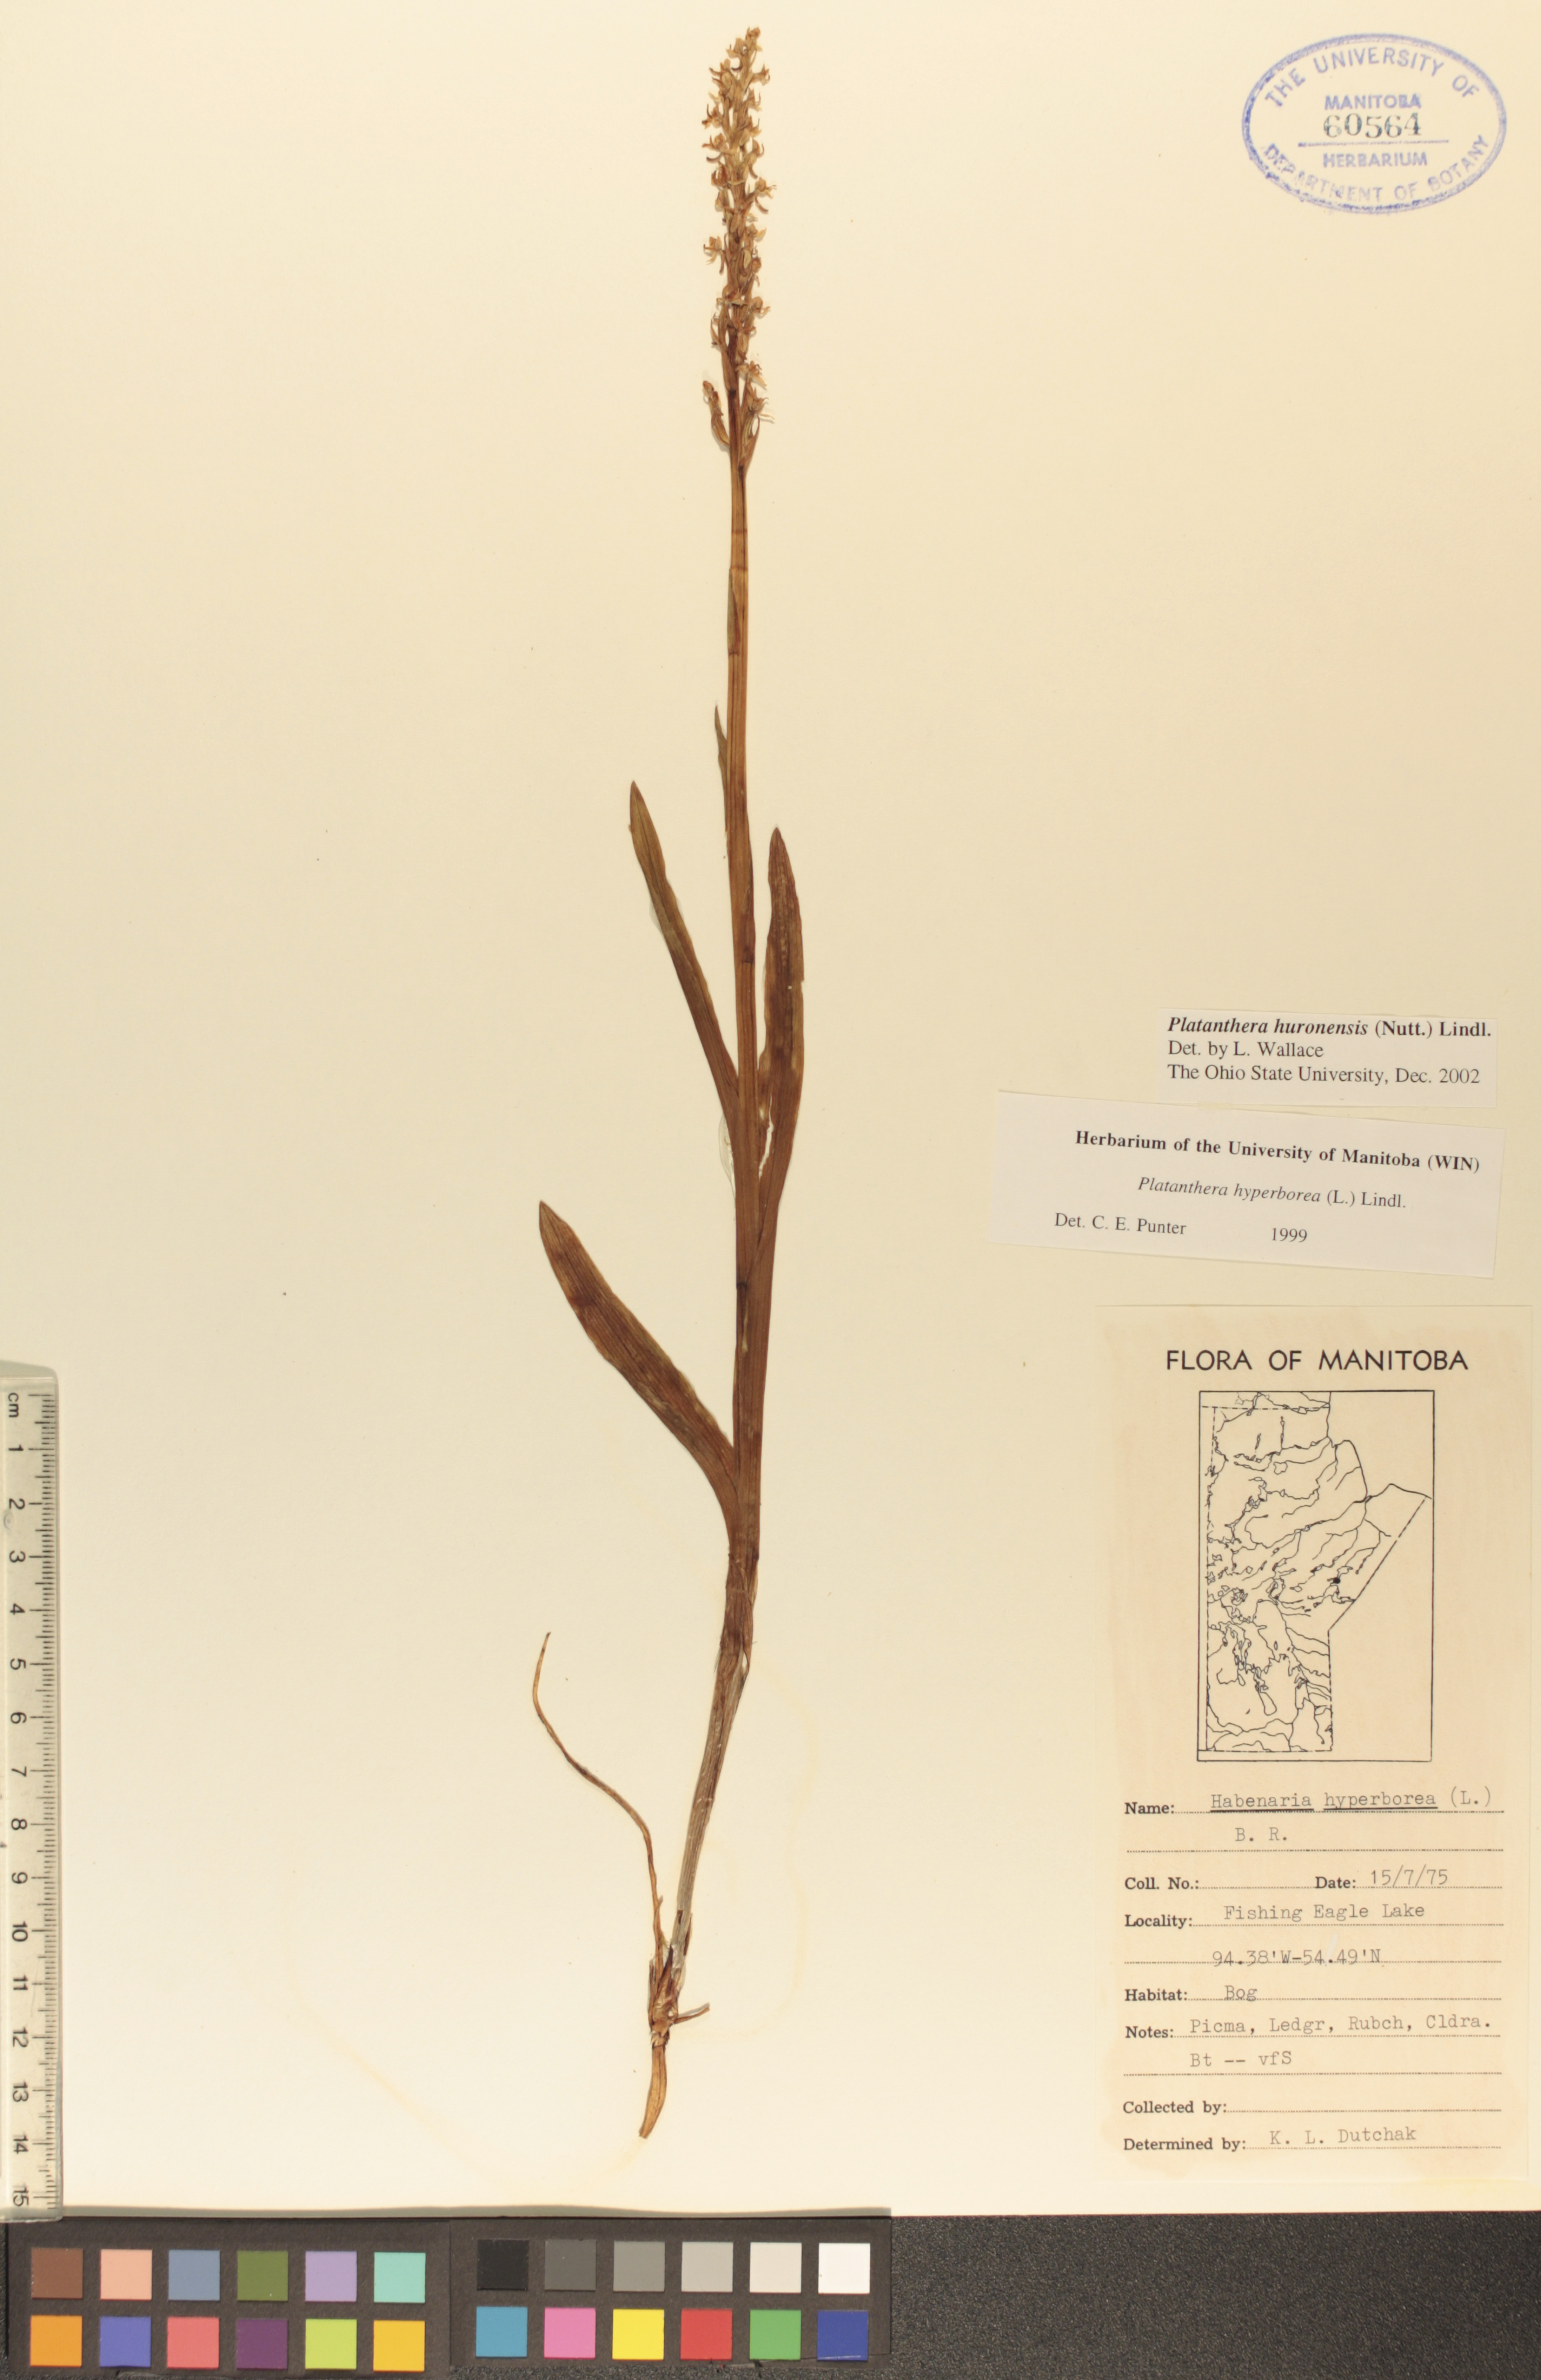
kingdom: Plantae
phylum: Tracheophyta
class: Liliopsida
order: Asparagales
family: Orchidaceae
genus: Platanthera
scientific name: Platanthera huronensis
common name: Fragrant green orchid
